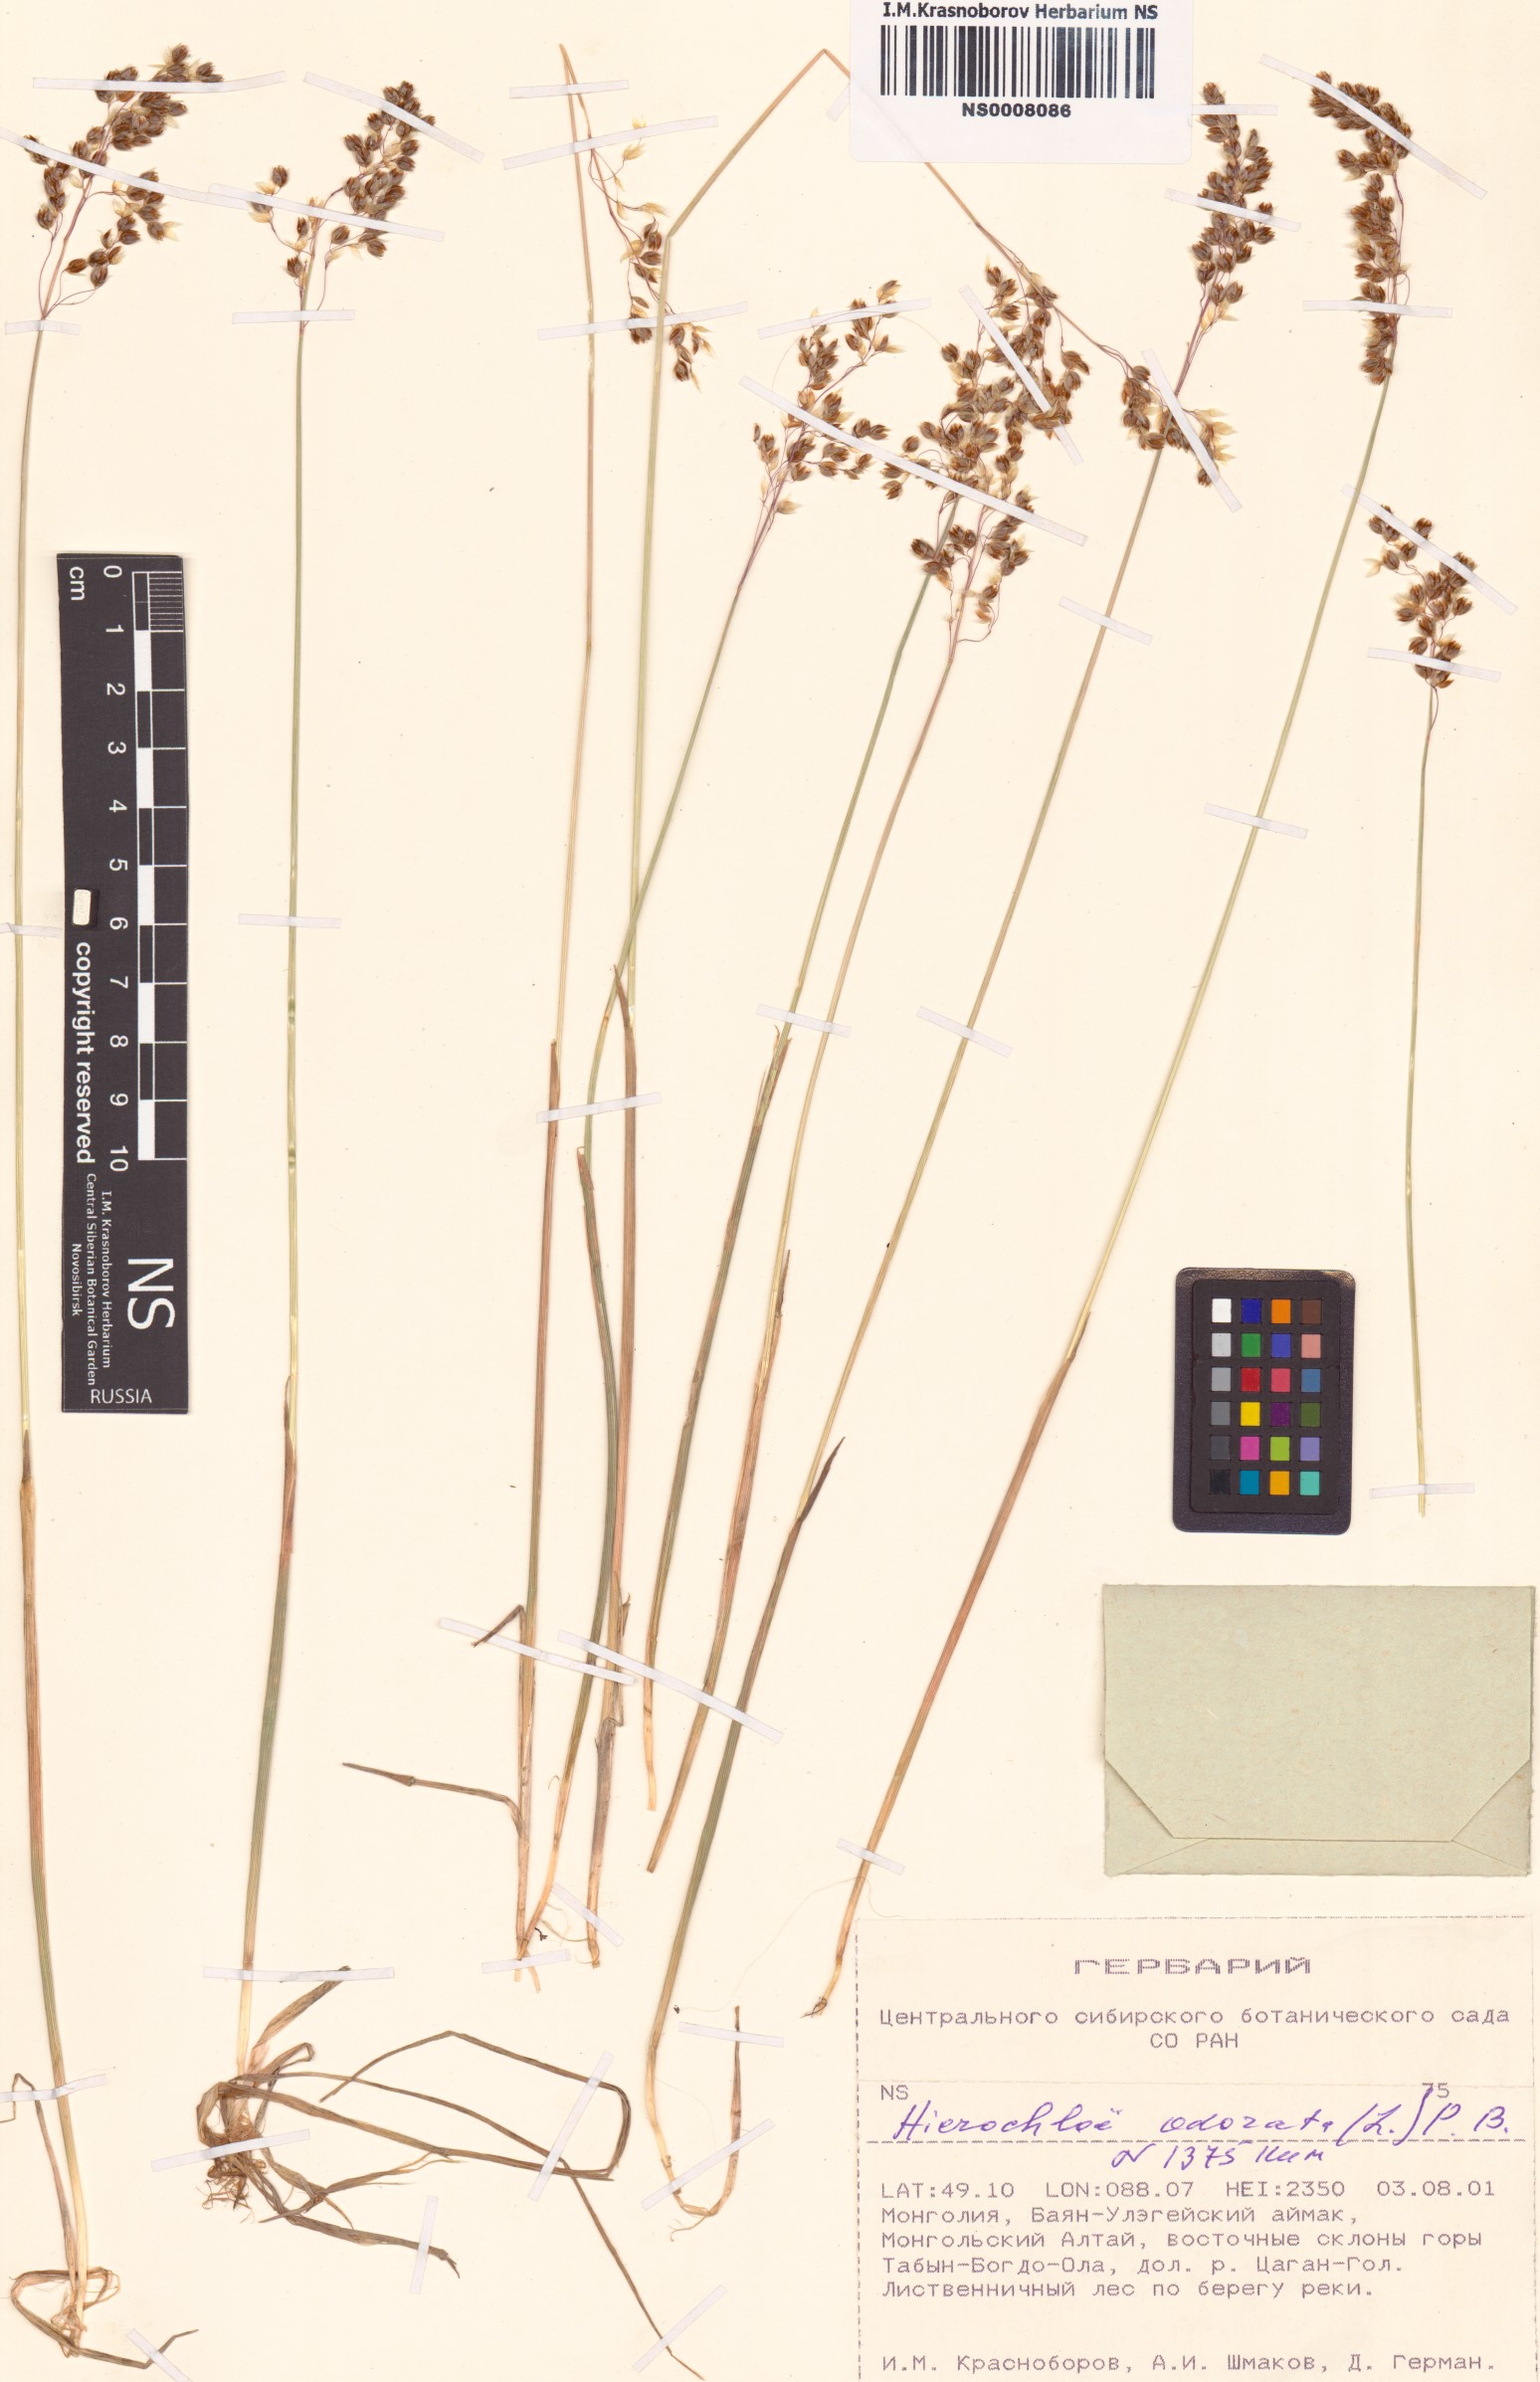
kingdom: Plantae
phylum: Tracheophyta
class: Liliopsida
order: Poales
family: Poaceae
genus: Anthoxanthum
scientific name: Anthoxanthum nitens
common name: Holy grass
